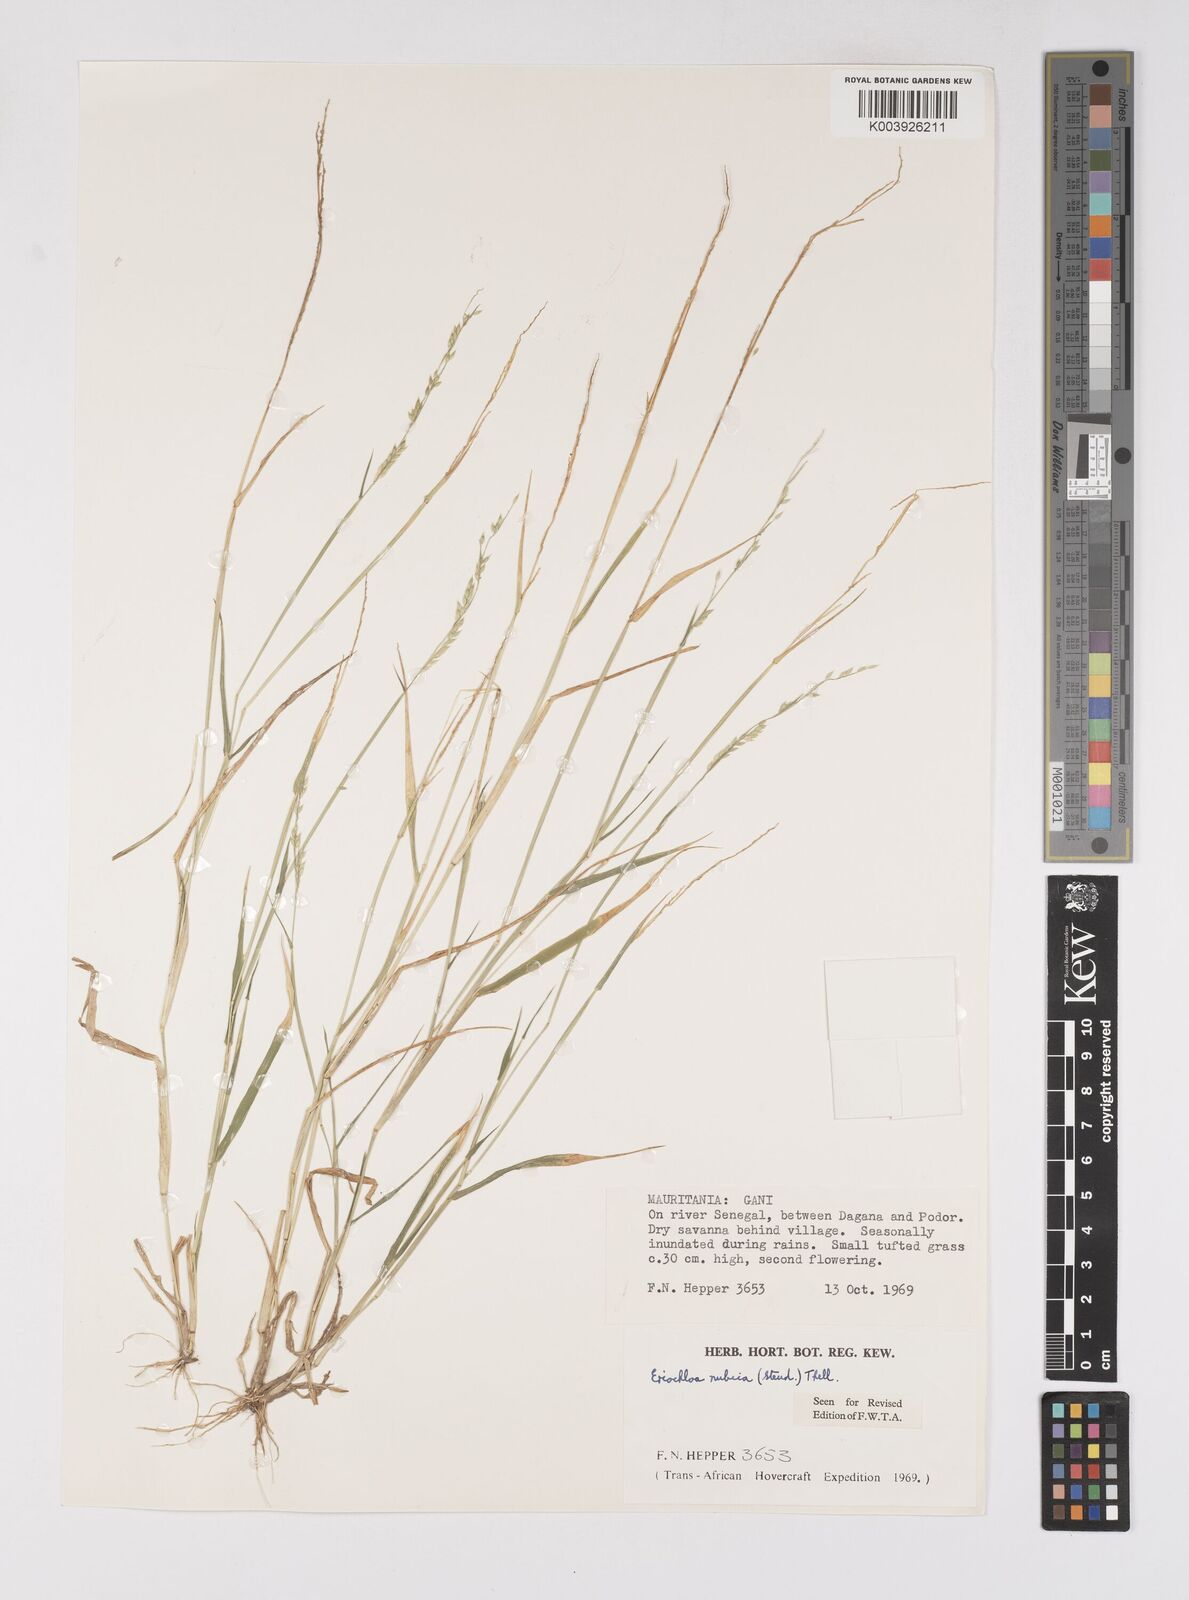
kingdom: Plantae
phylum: Tracheophyta
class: Liliopsida
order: Poales
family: Poaceae
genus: Eriochloa
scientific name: Eriochloa barbatus
